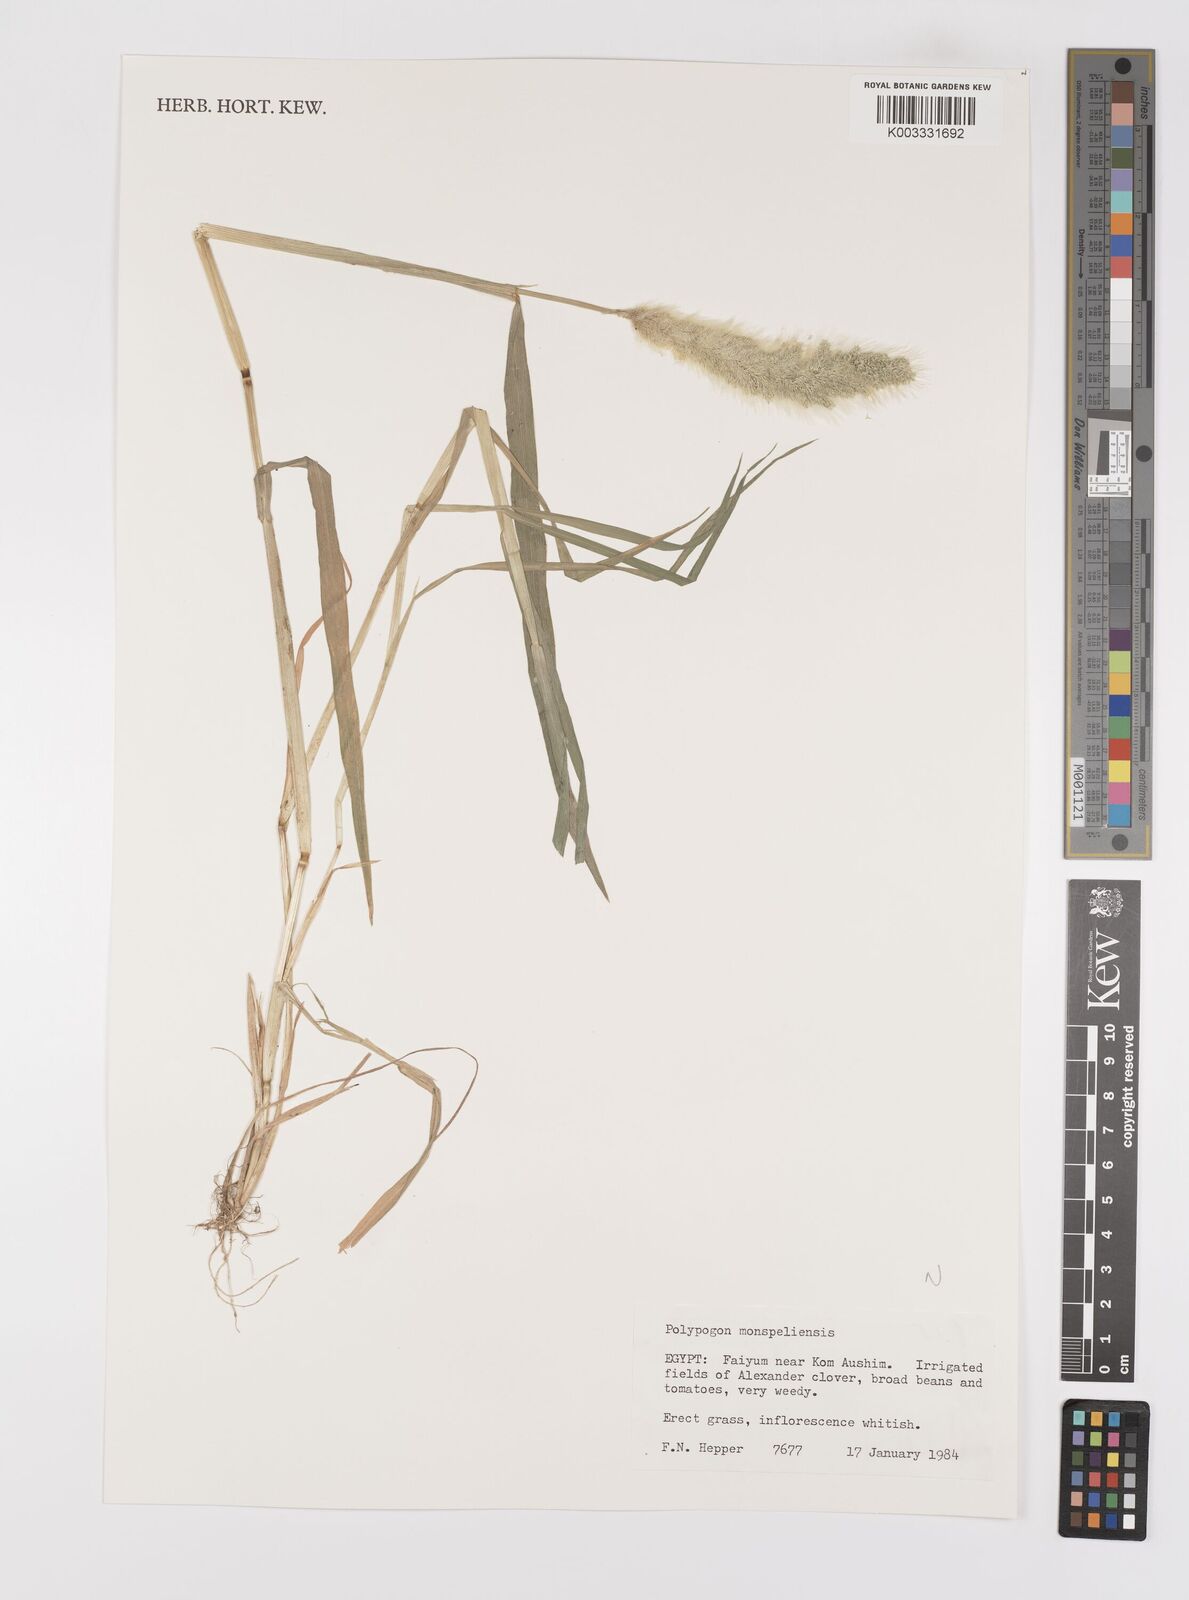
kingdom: Plantae
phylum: Tracheophyta
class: Liliopsida
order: Poales
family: Poaceae
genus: Polypogon
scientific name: Polypogon monspeliensis
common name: Annual rabbitsfoot grass
